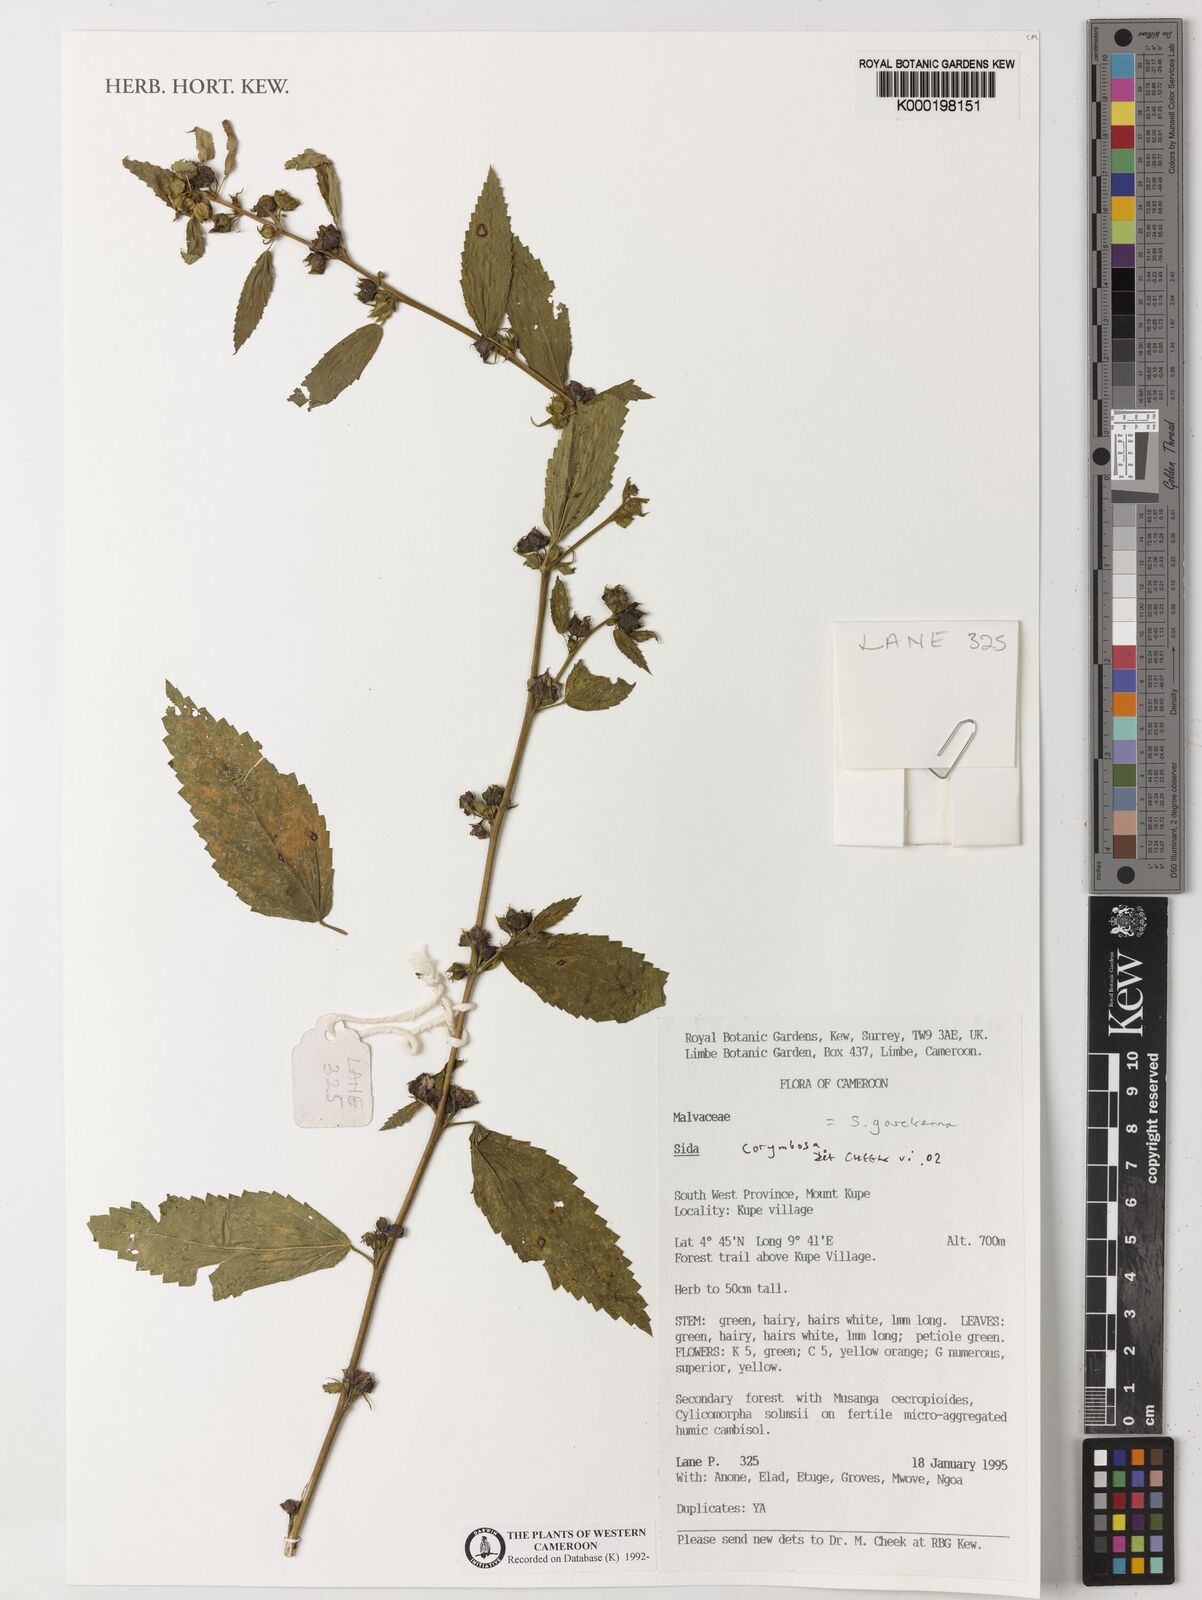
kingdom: Plantae
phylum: Tracheophyta
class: Magnoliopsida
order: Malvales
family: Malvaceae
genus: Sida
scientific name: Sida acuta
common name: Common wireweed
